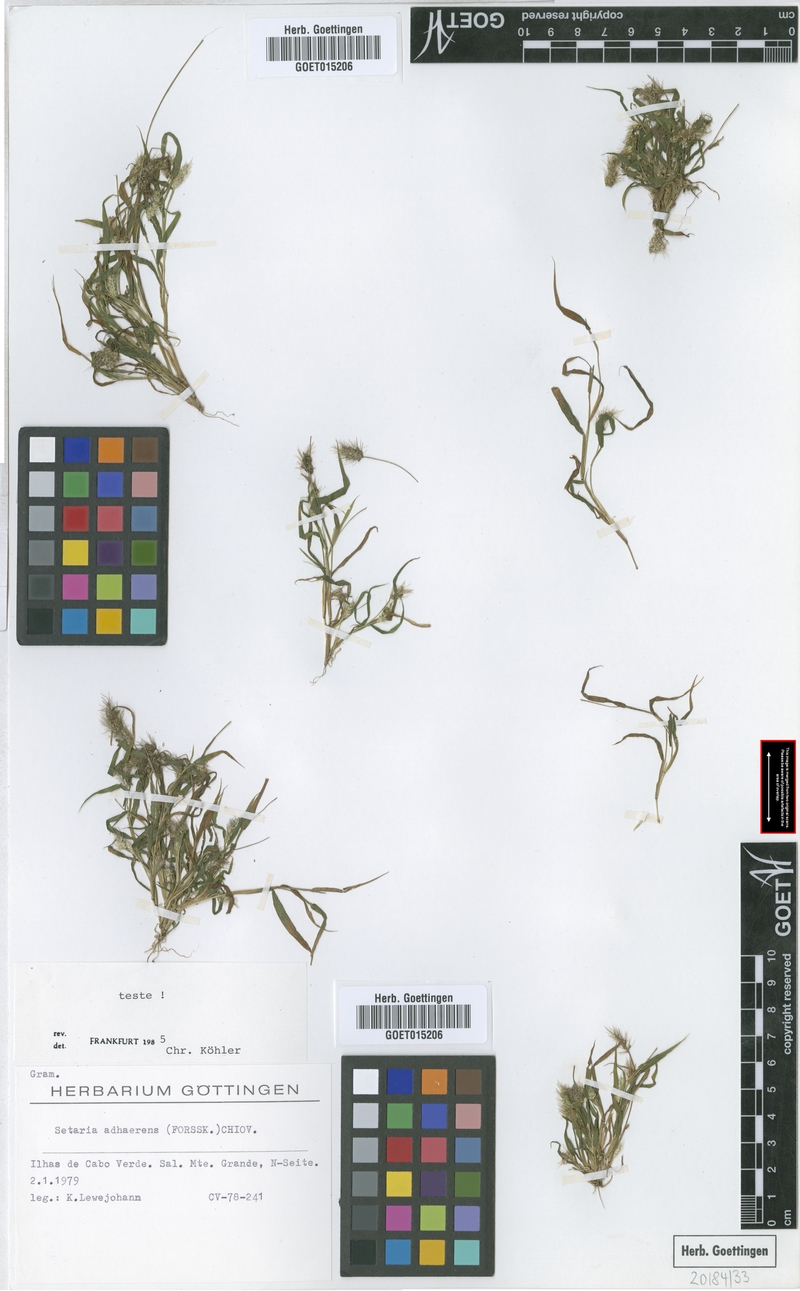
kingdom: Plantae
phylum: Tracheophyta
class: Liliopsida
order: Poales
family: Poaceae
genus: Setaria
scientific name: Setaria adhaerens
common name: Adherent bristle-grass
